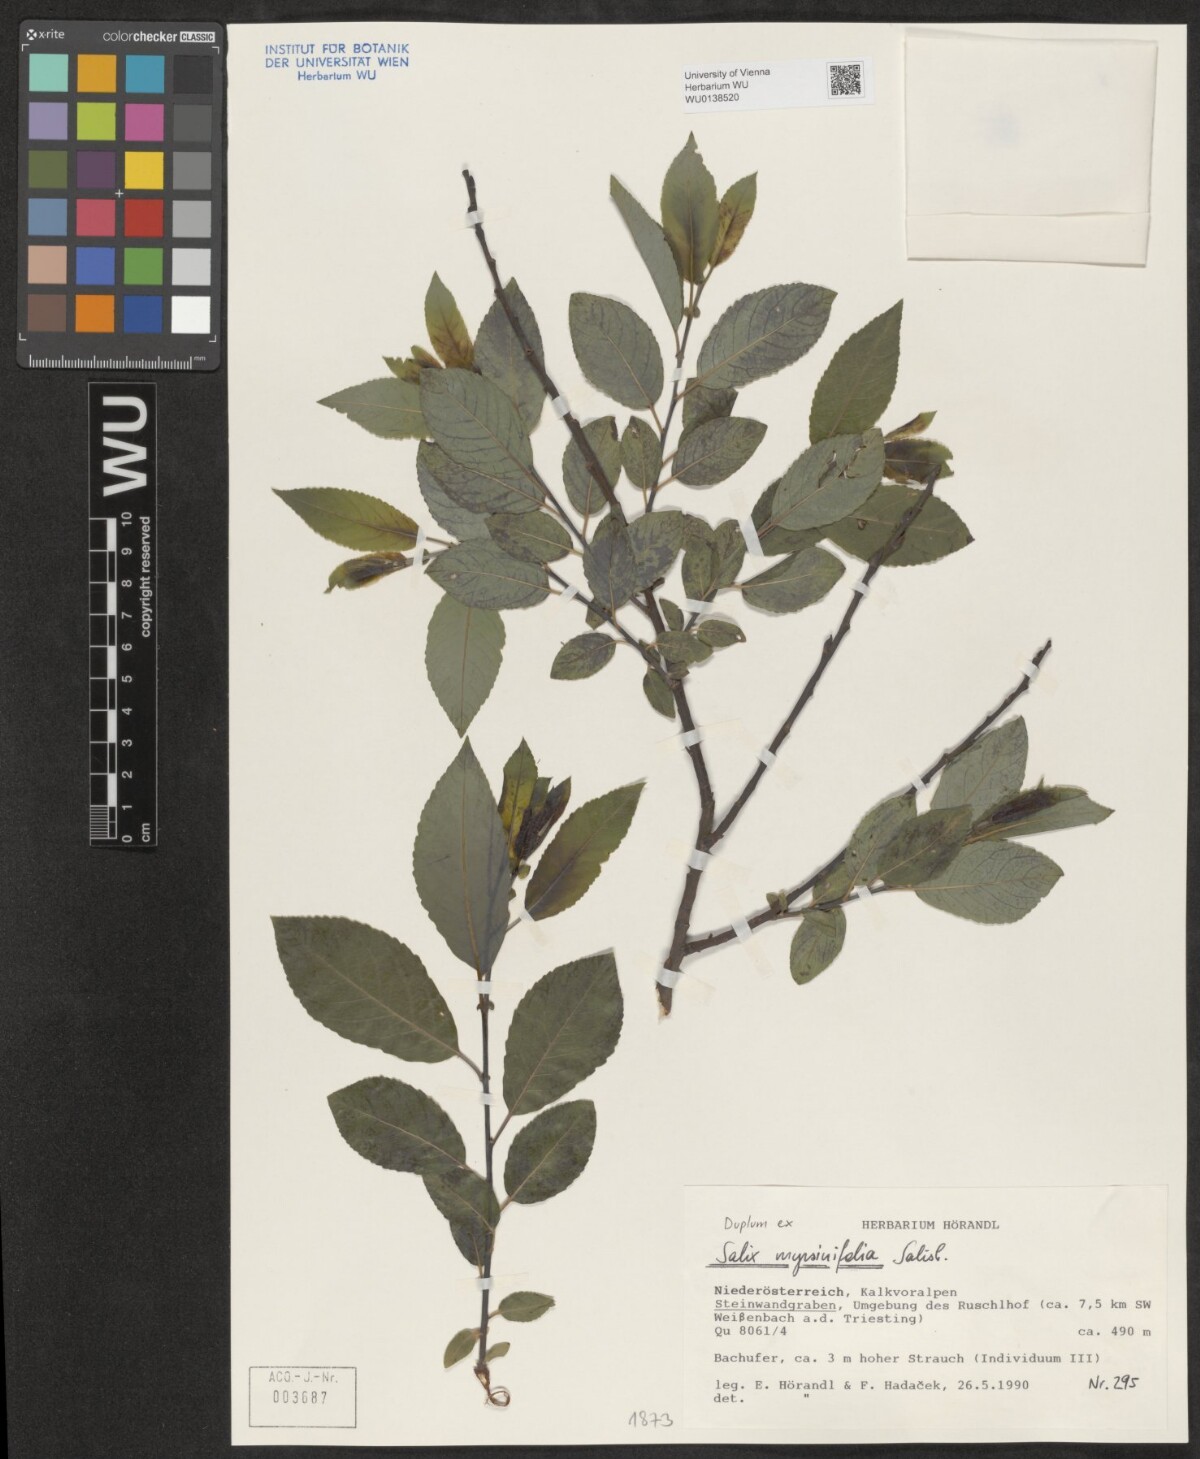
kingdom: Plantae
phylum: Tracheophyta
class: Magnoliopsida
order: Malpighiales
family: Salicaceae
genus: Salix
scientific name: Salix myrsinifolia
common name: Dark-leaved willow
